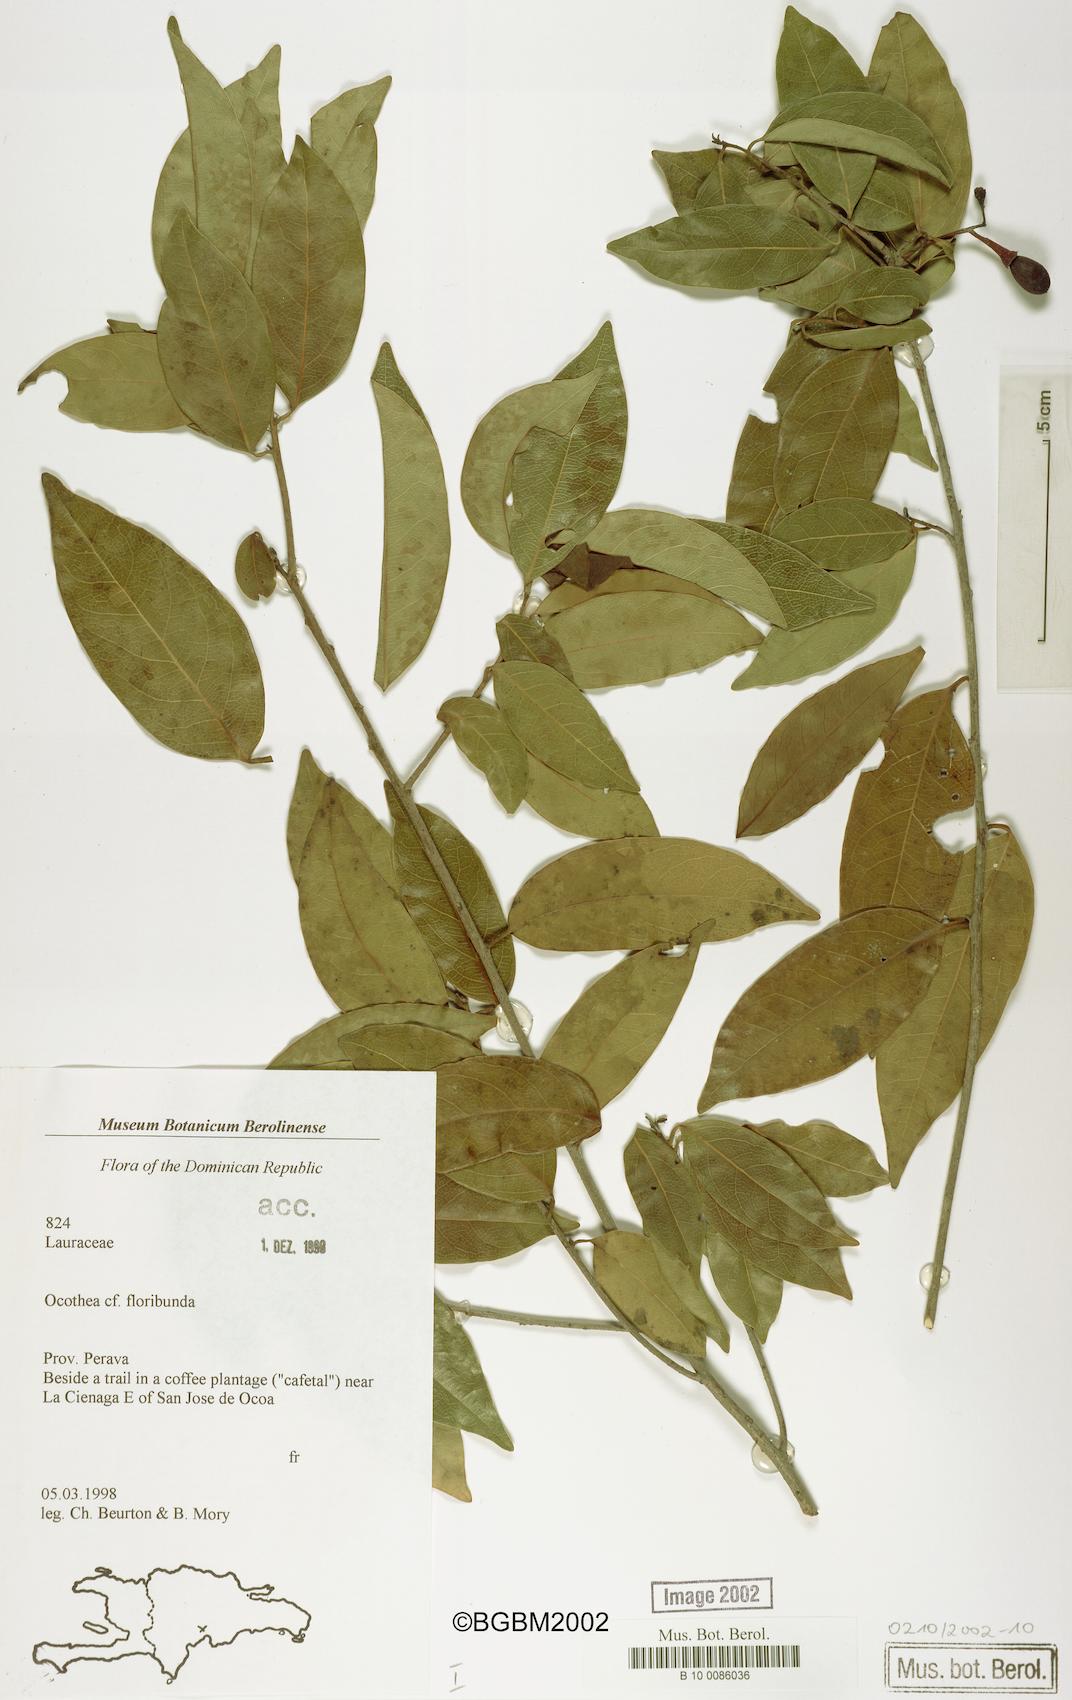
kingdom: Plantae
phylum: Tracheophyta
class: Magnoliopsida
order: Laurales
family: Lauraceae
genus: Ocotea
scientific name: Ocotea floribunda
